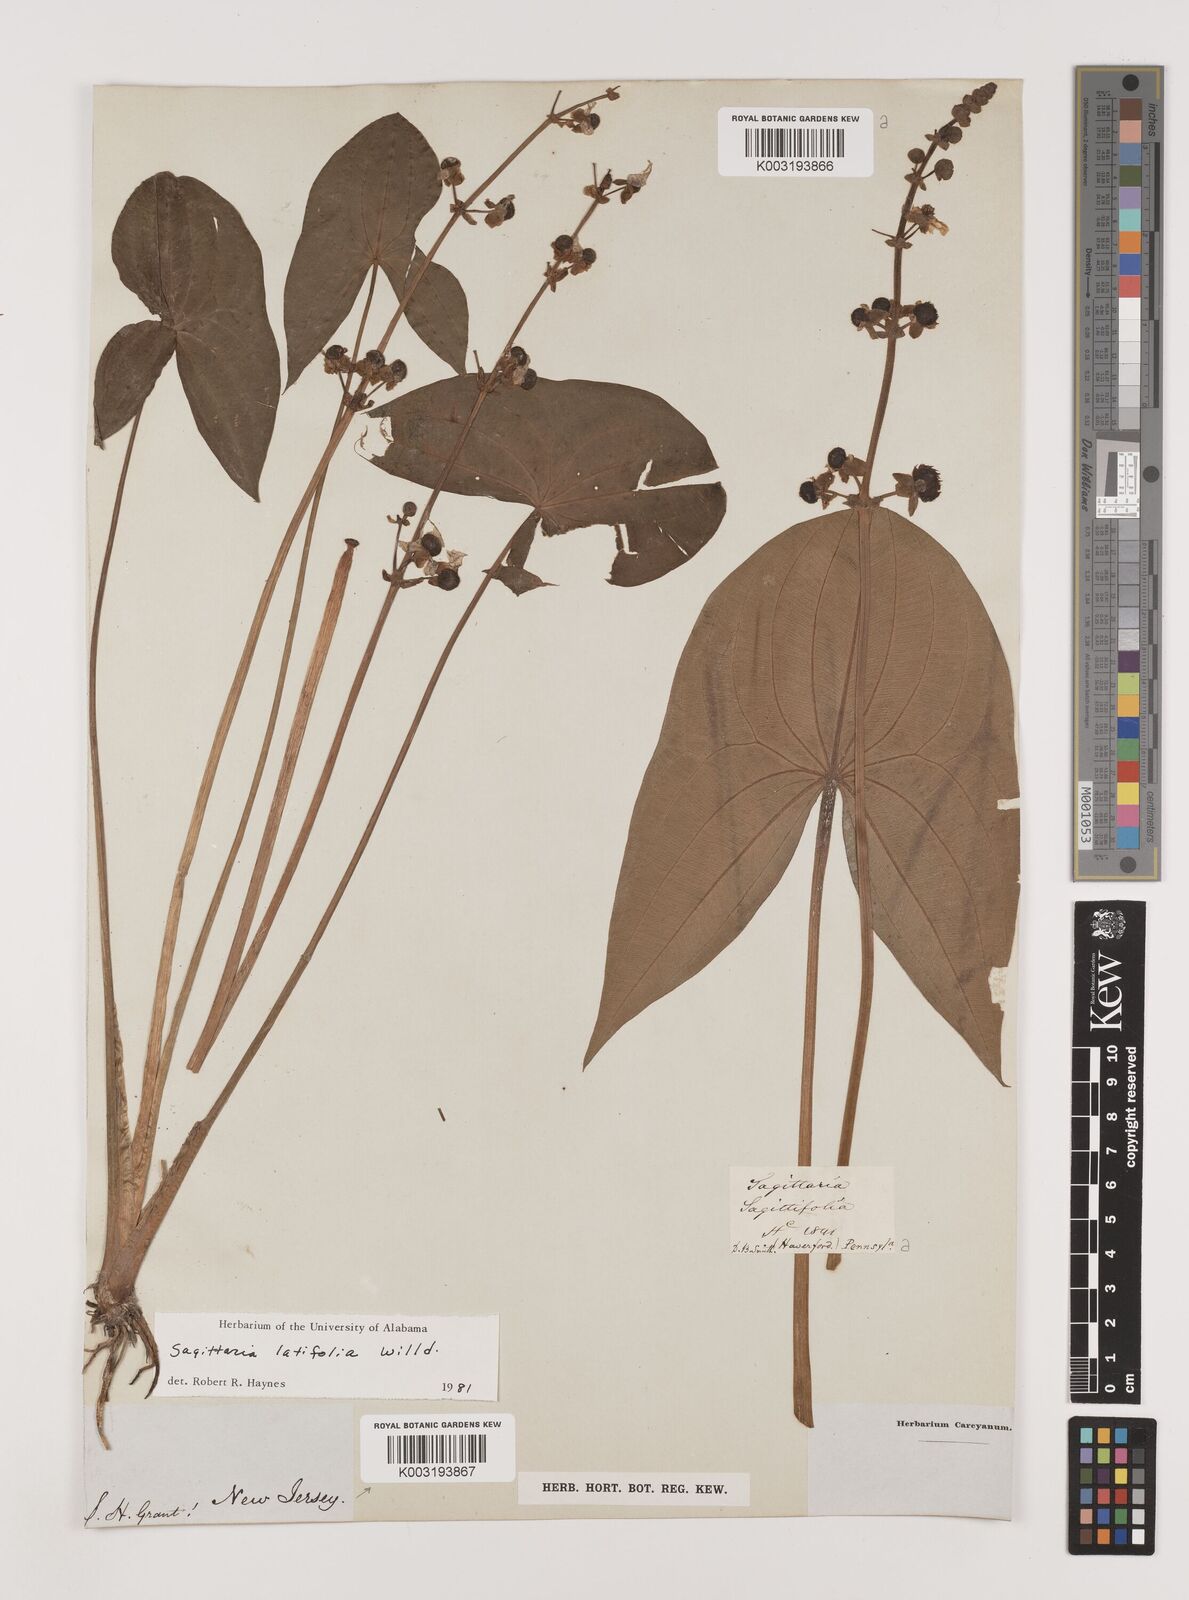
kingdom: Plantae
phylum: Tracheophyta
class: Liliopsida
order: Alismatales
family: Alismataceae
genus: Sagittaria
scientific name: Sagittaria latifolia
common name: Duck-potato
